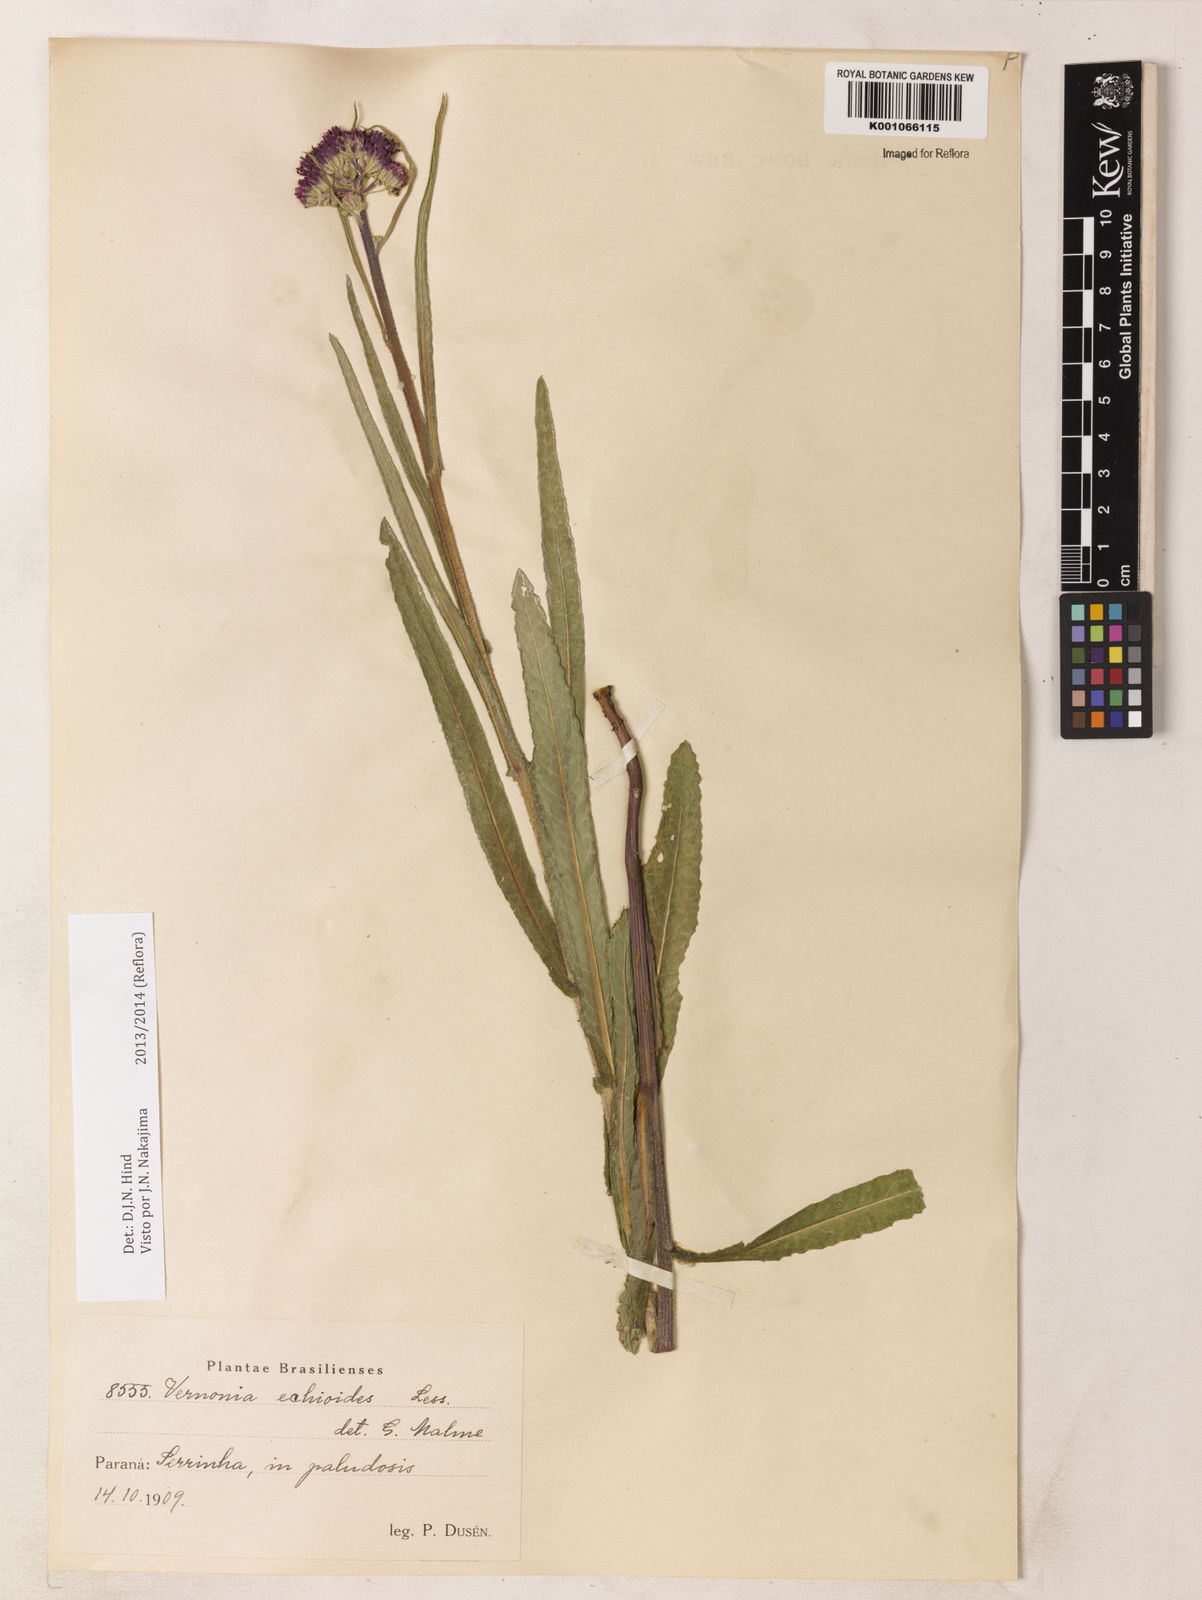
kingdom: Plantae
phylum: Tracheophyta
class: Magnoliopsida
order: Asterales
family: Asteraceae
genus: Vernonia
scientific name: Vernonia echioides
